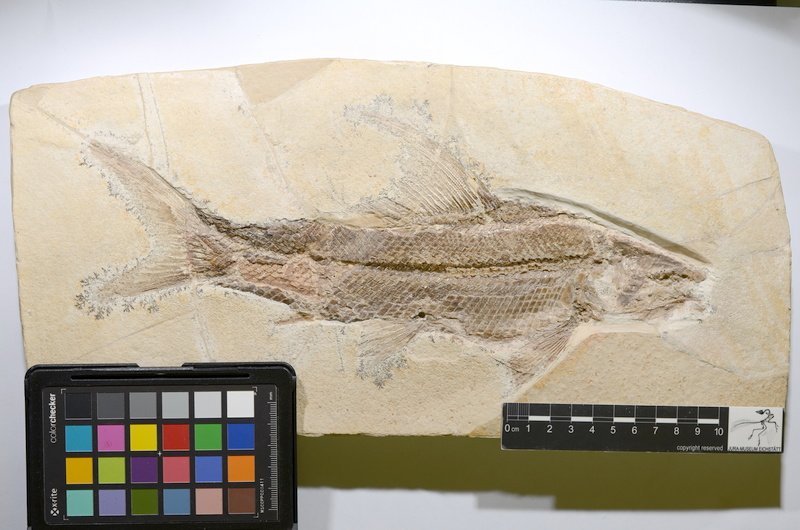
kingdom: Animalia
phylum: Chordata
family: Ophiopsiellidae
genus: Ophiopsiella
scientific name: Ophiopsiella attenuata
